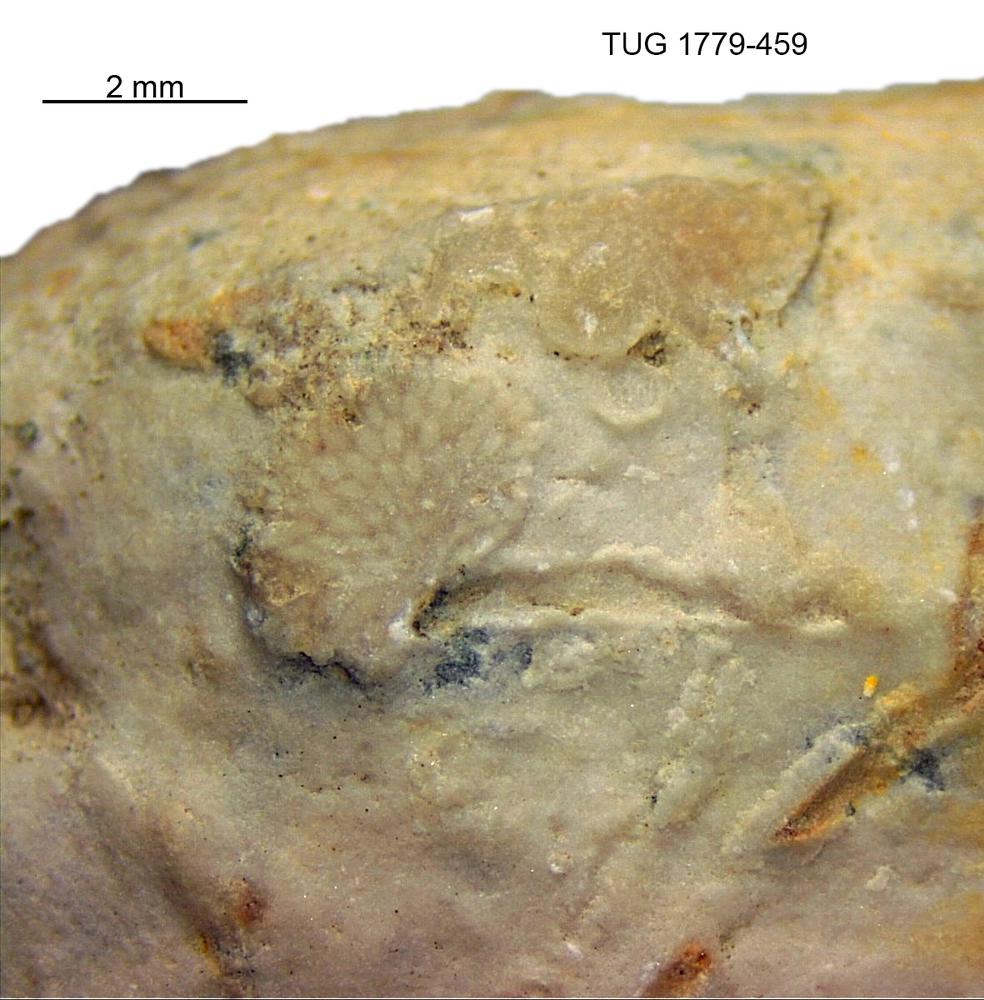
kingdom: Animalia
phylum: Bryozoa
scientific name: Bryozoa
